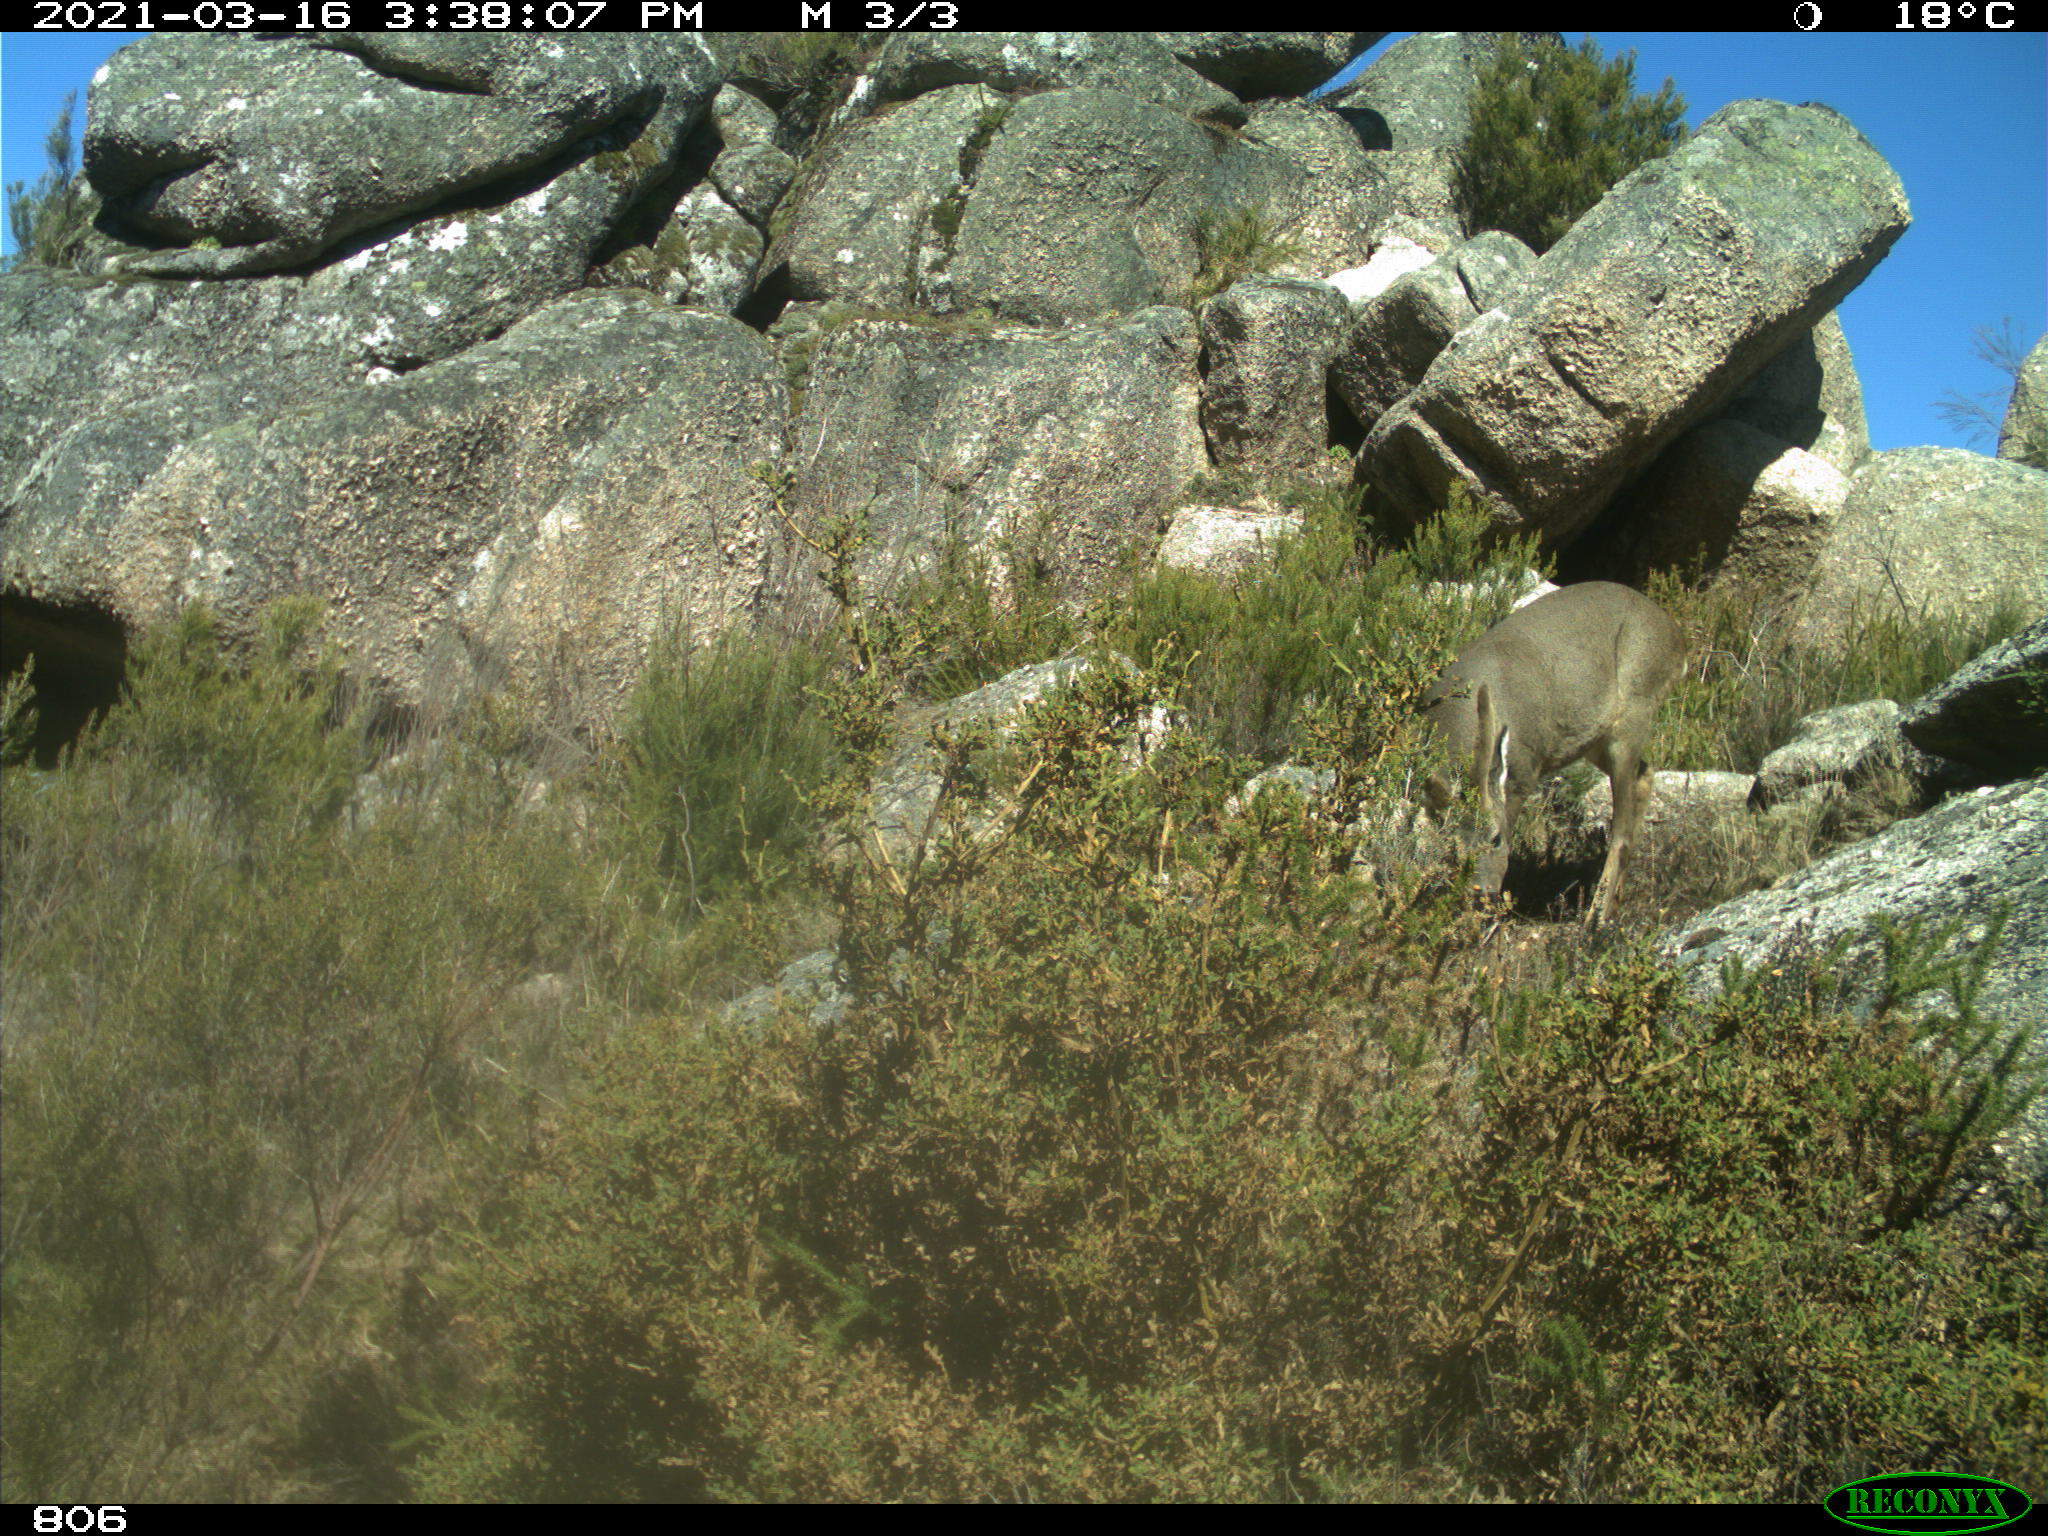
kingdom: Animalia
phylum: Chordata
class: Mammalia
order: Artiodactyla
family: Cervidae
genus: Capreolus
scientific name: Capreolus capreolus
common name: Western roe deer
